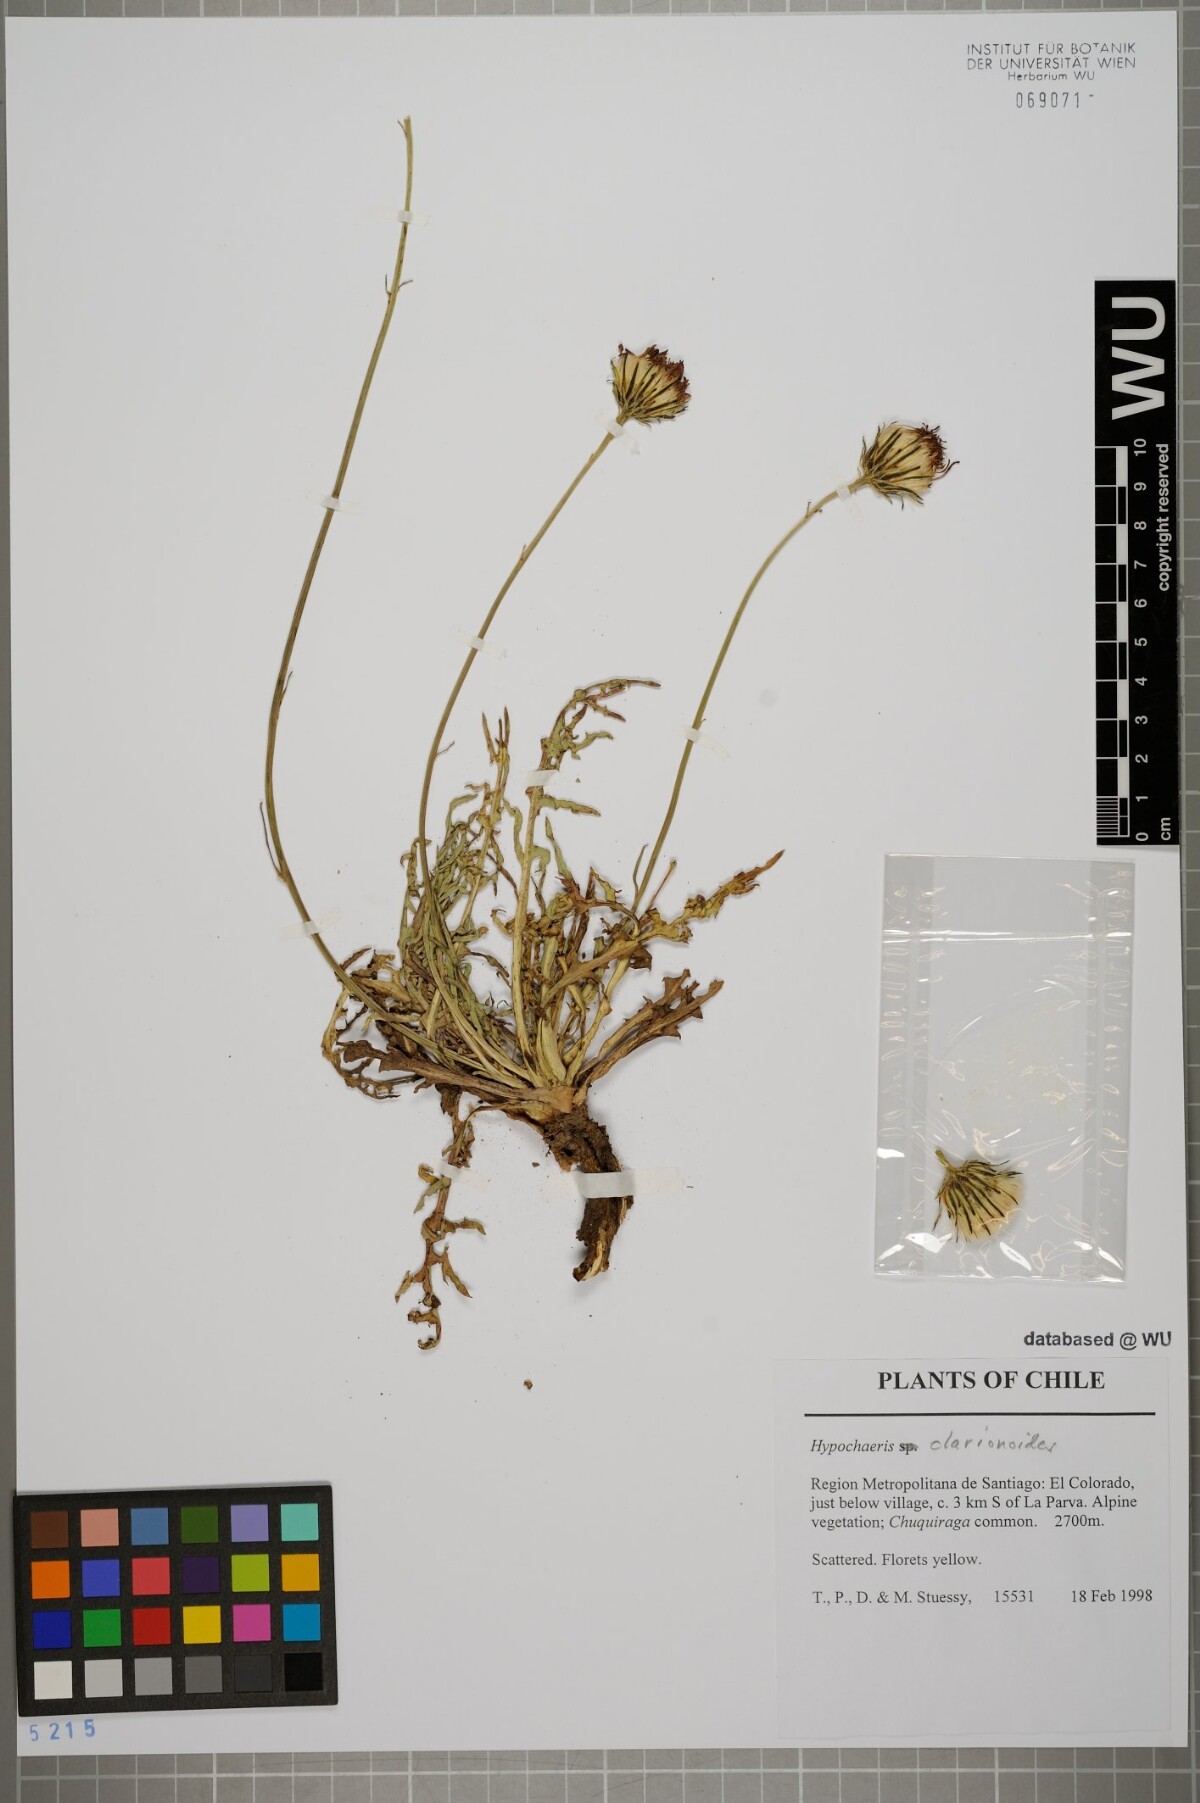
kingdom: Plantae
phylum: Tracheophyta
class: Magnoliopsida
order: Asterales
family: Asteraceae
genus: Hypochaeris
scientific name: Hypochaeris clarionoides
